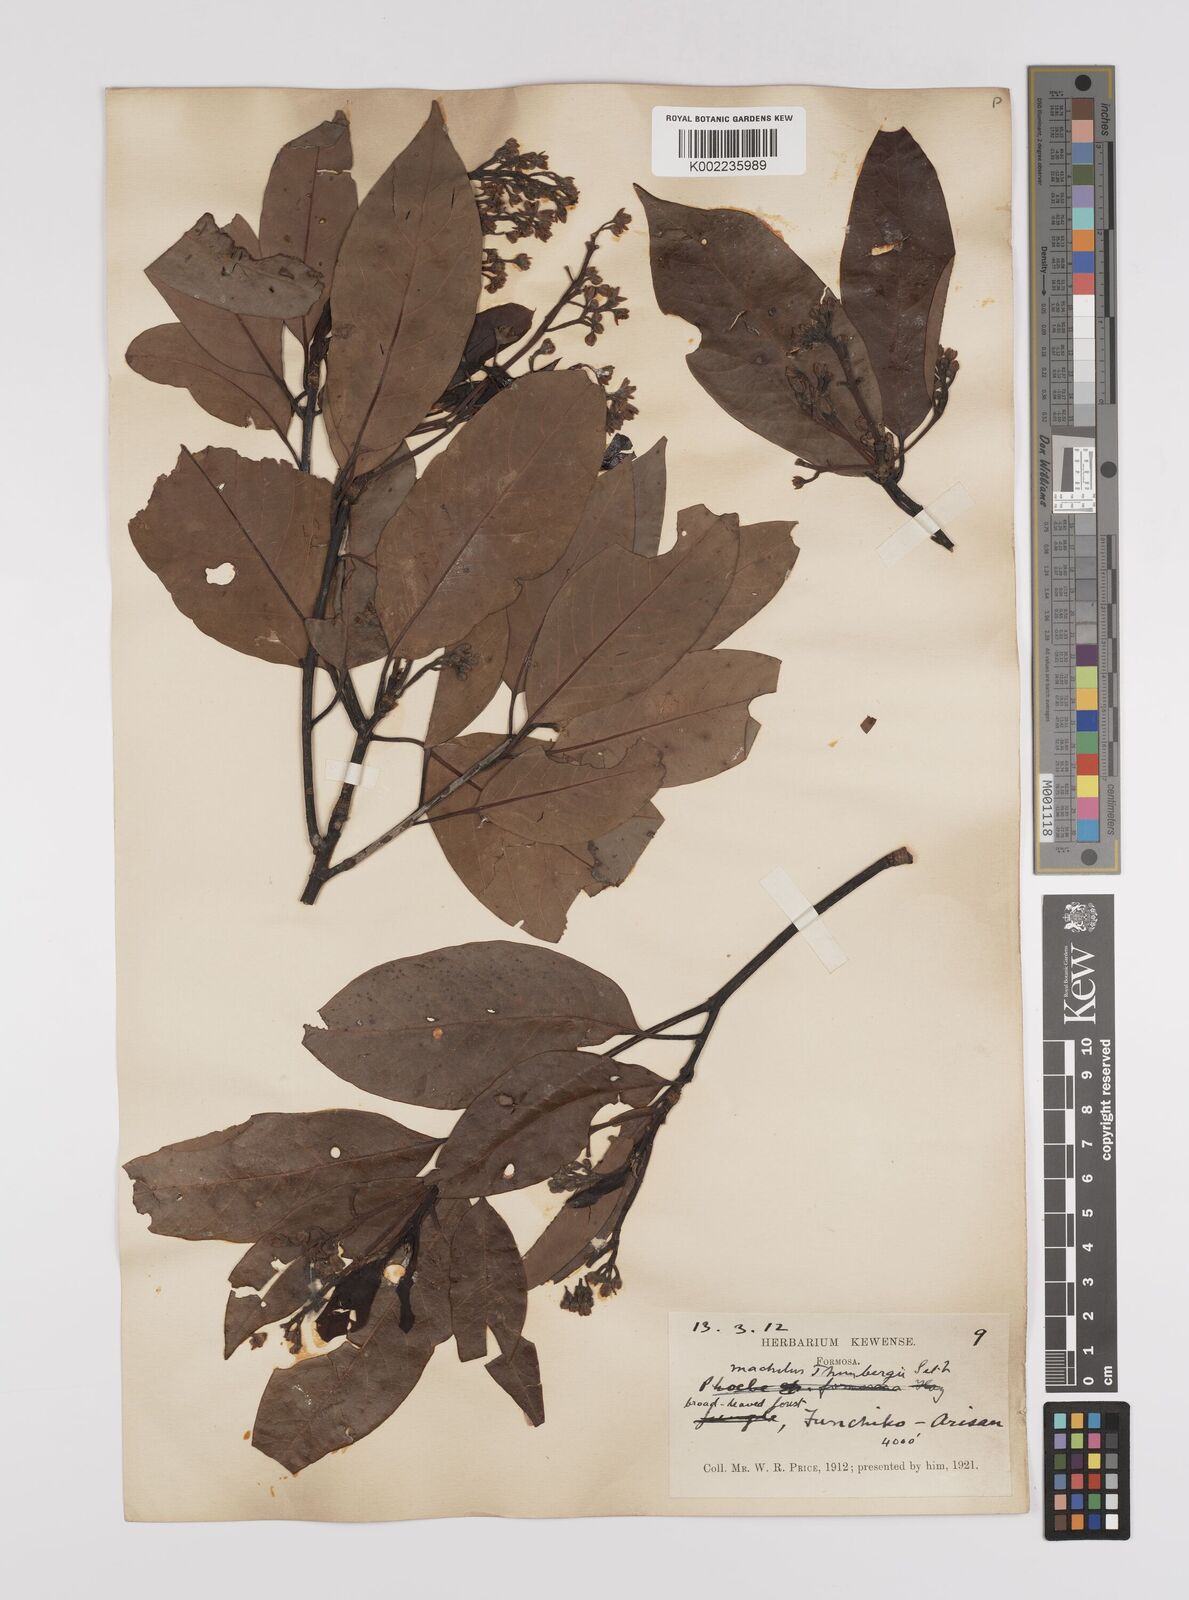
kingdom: Plantae
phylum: Tracheophyta
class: Magnoliopsida
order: Laurales
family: Lauraceae
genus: Persea
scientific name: Persea
